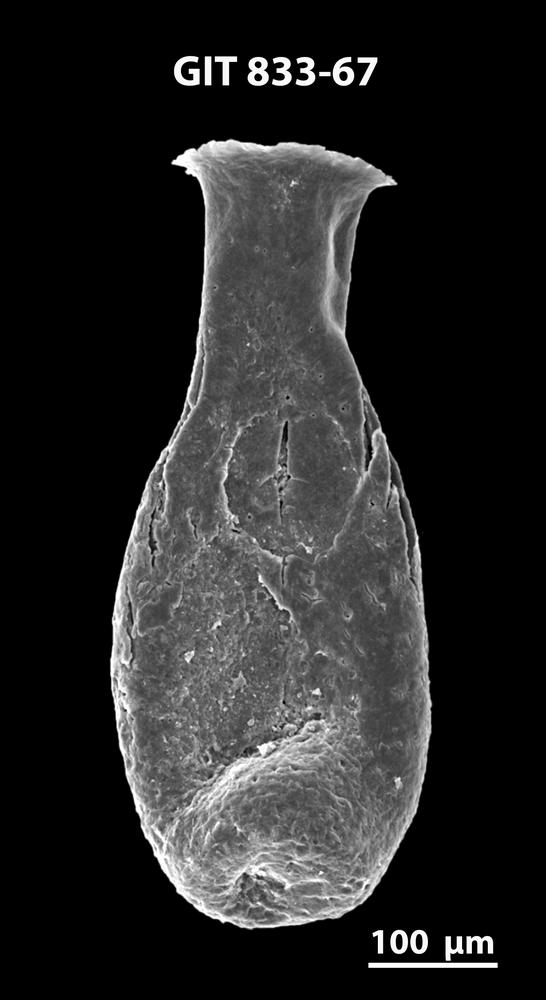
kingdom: Animalia
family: Lagenochitinidae
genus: Lagenochitina
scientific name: Lagenochitina megaesthonica
